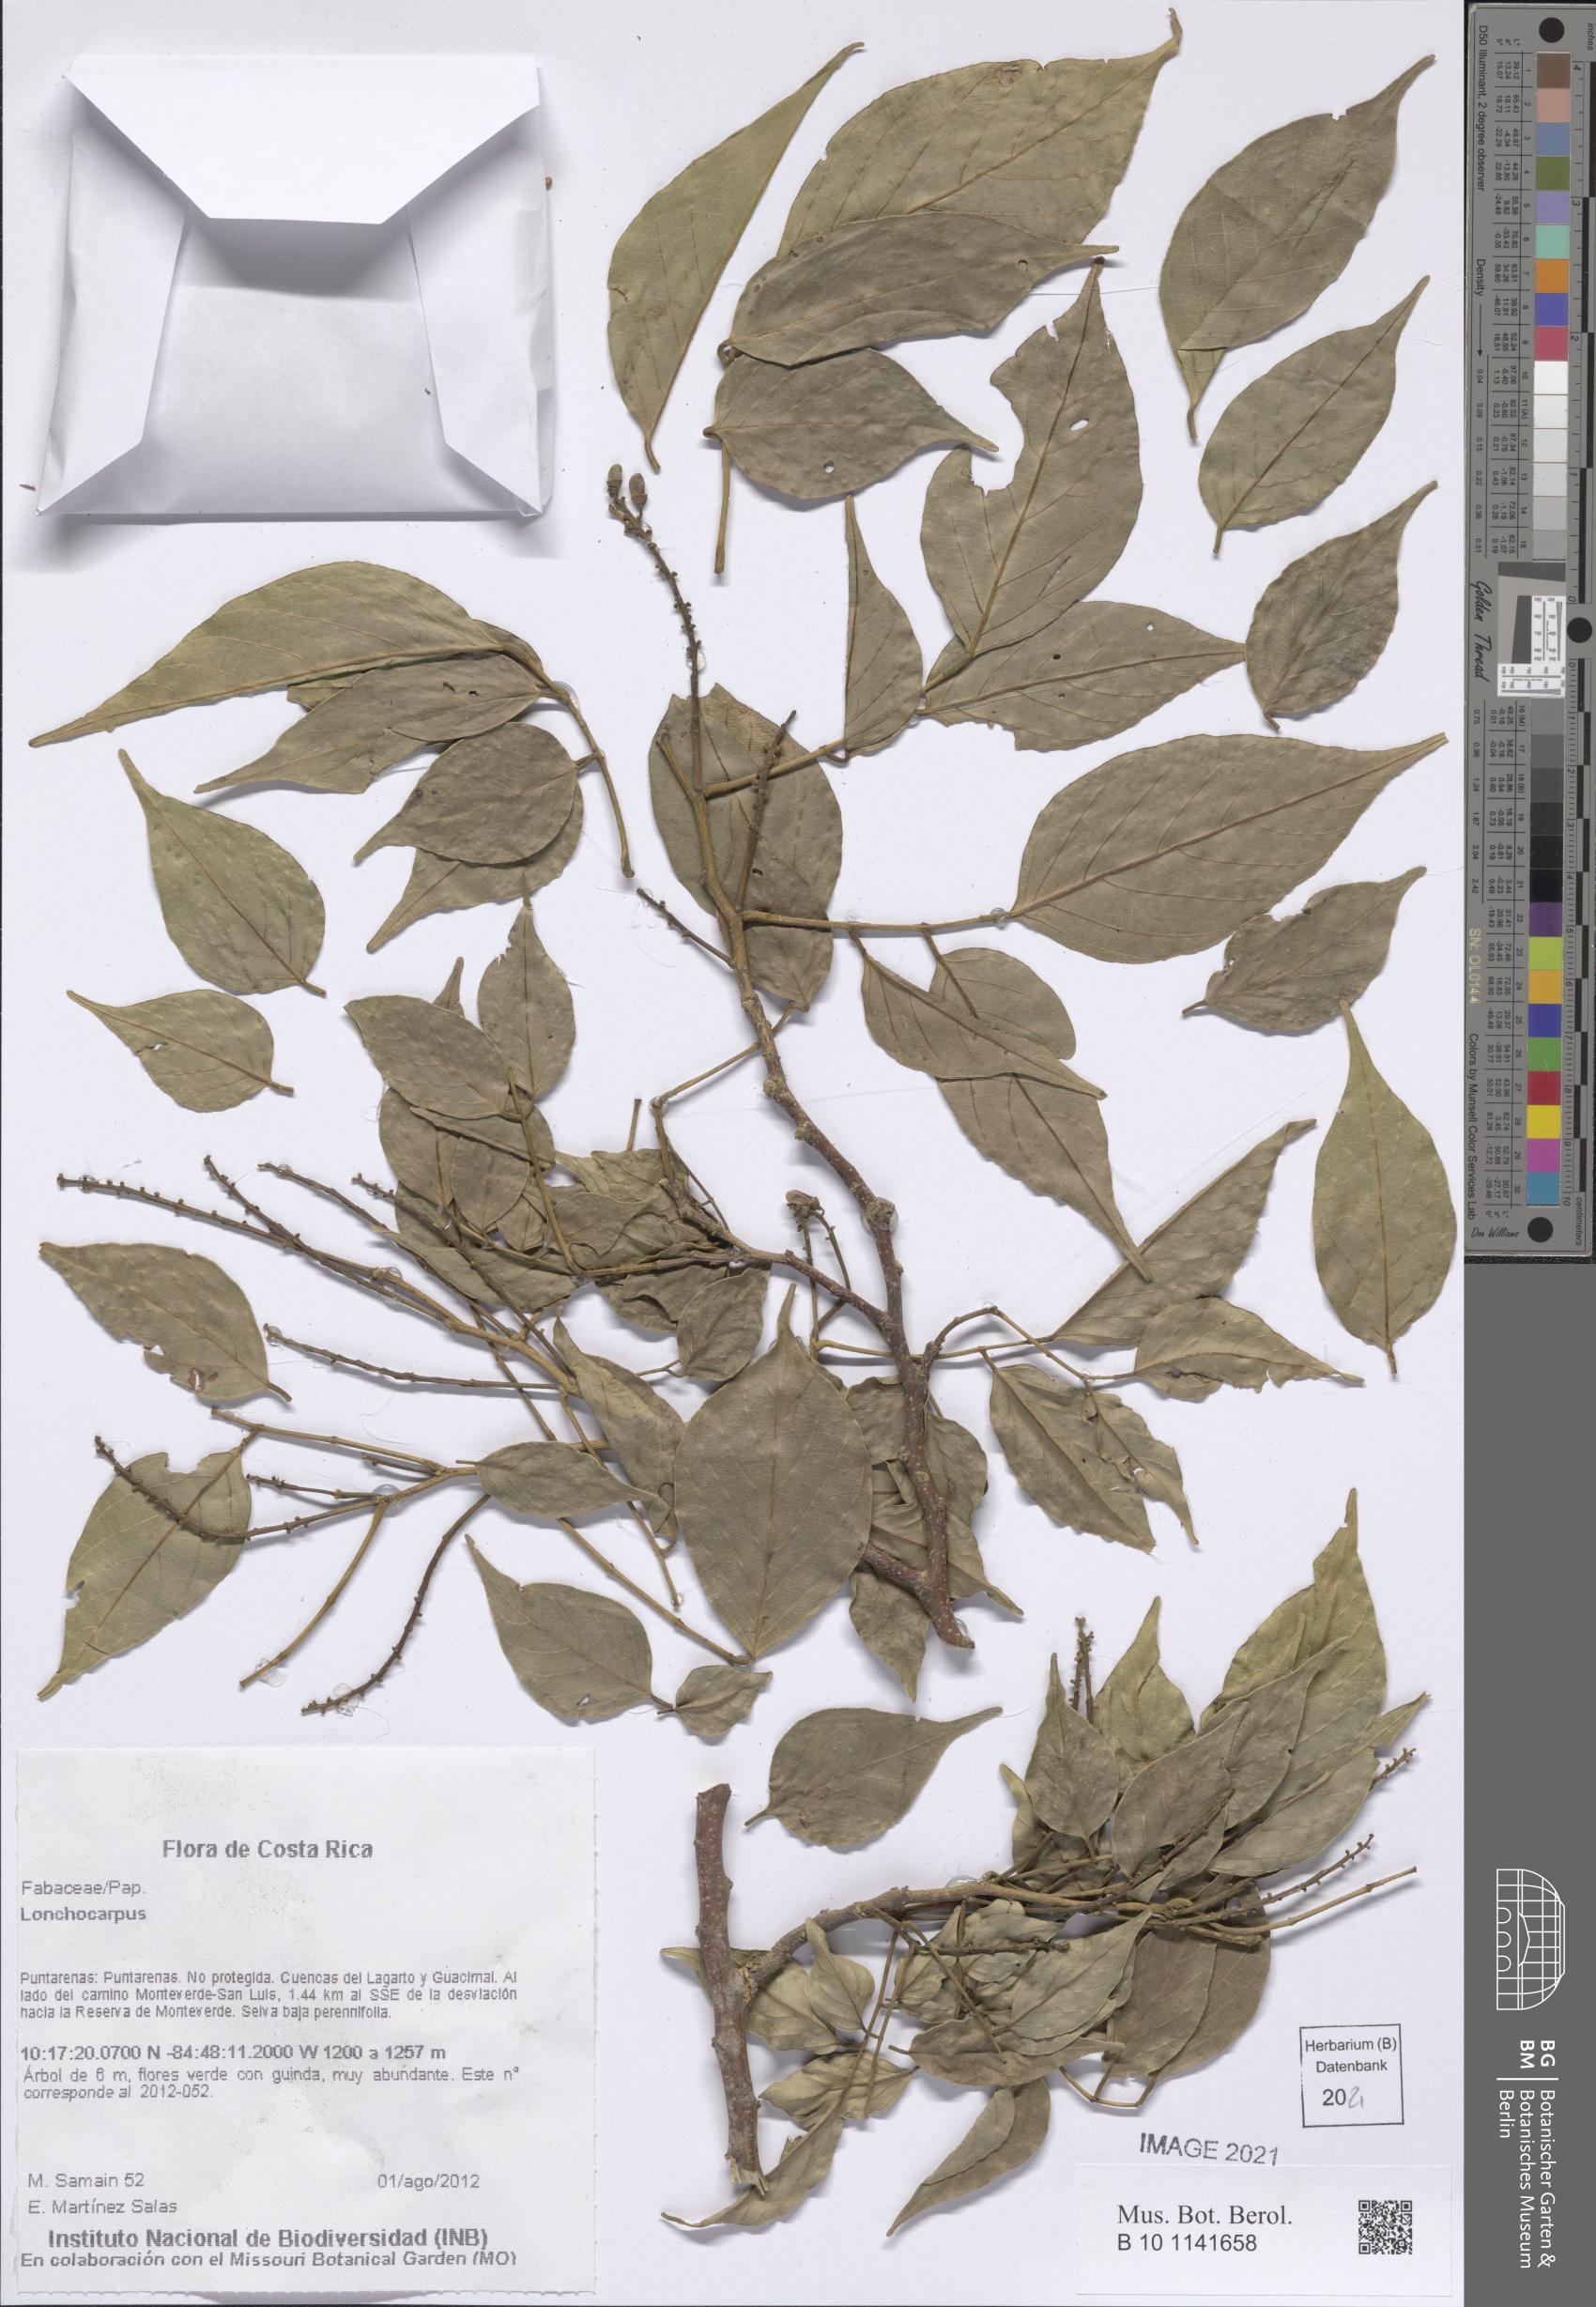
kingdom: Plantae
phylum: Tracheophyta
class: Magnoliopsida
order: Fabales
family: Fabaceae
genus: Lonchocarpus
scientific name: Lonchocarpus
